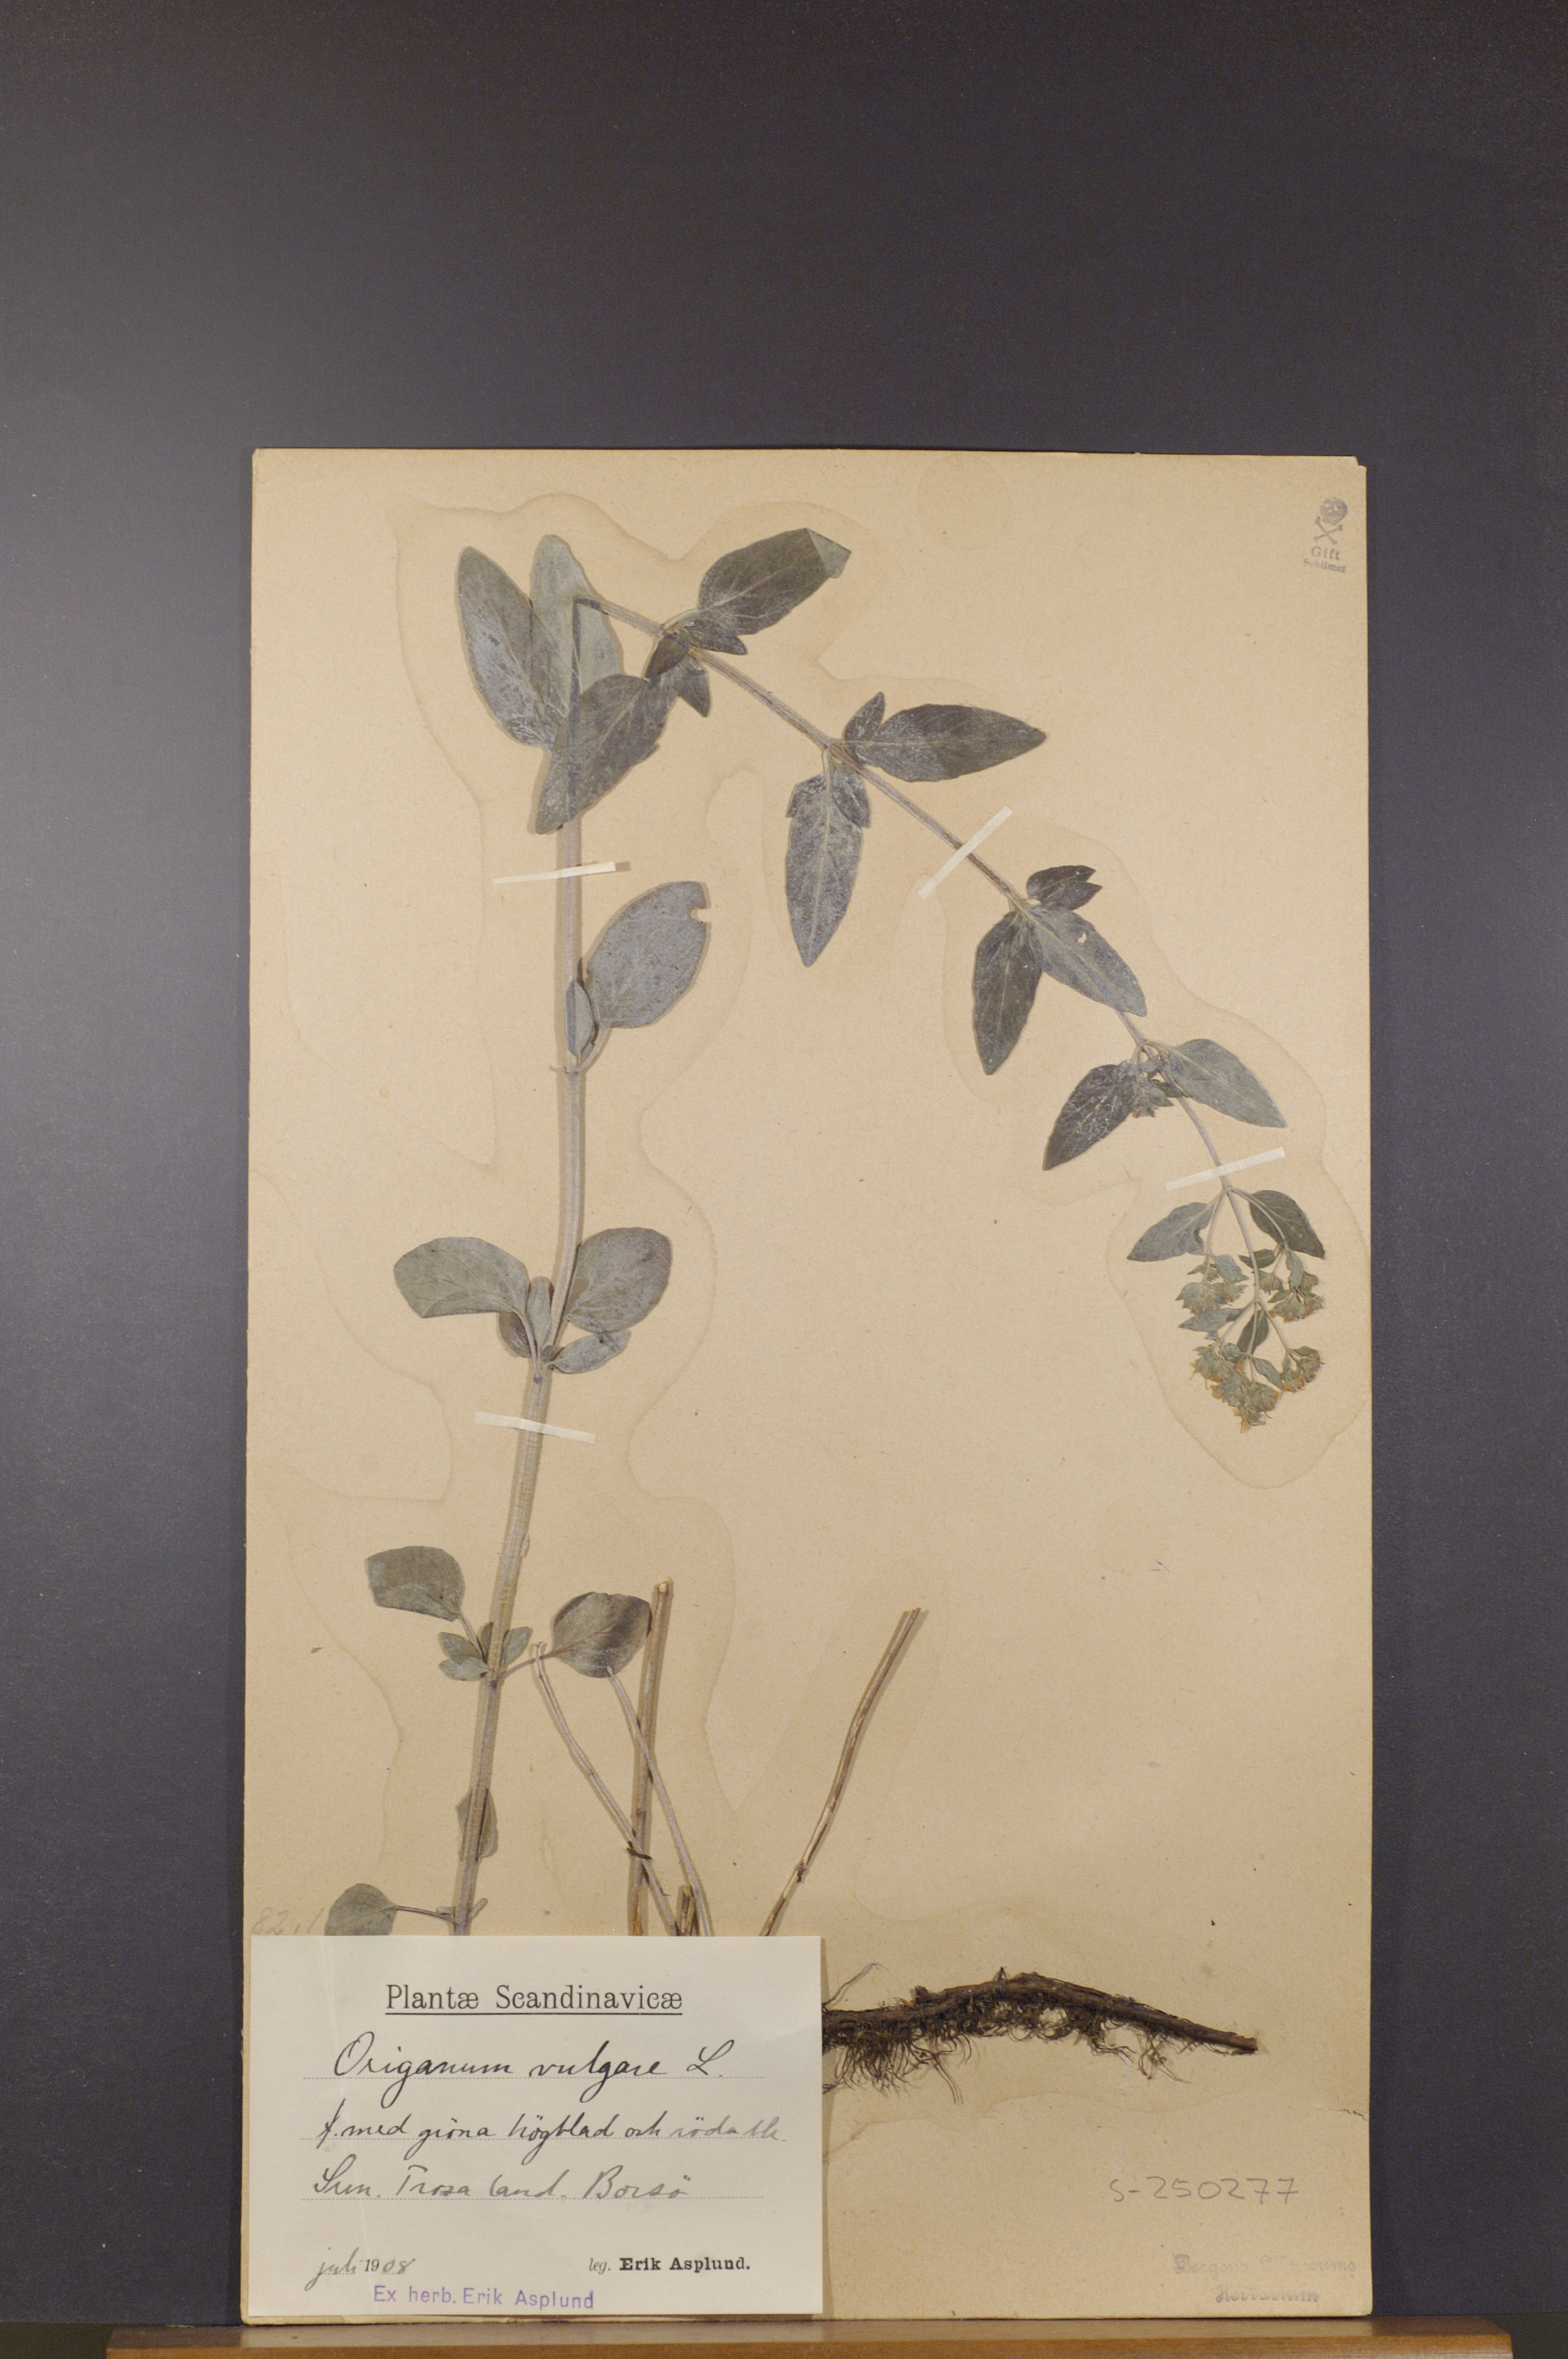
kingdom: Plantae
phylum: Tracheophyta
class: Magnoliopsida
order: Lamiales
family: Lamiaceae
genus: Origanum
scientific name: Origanum vulgare
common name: Wild marjoram
